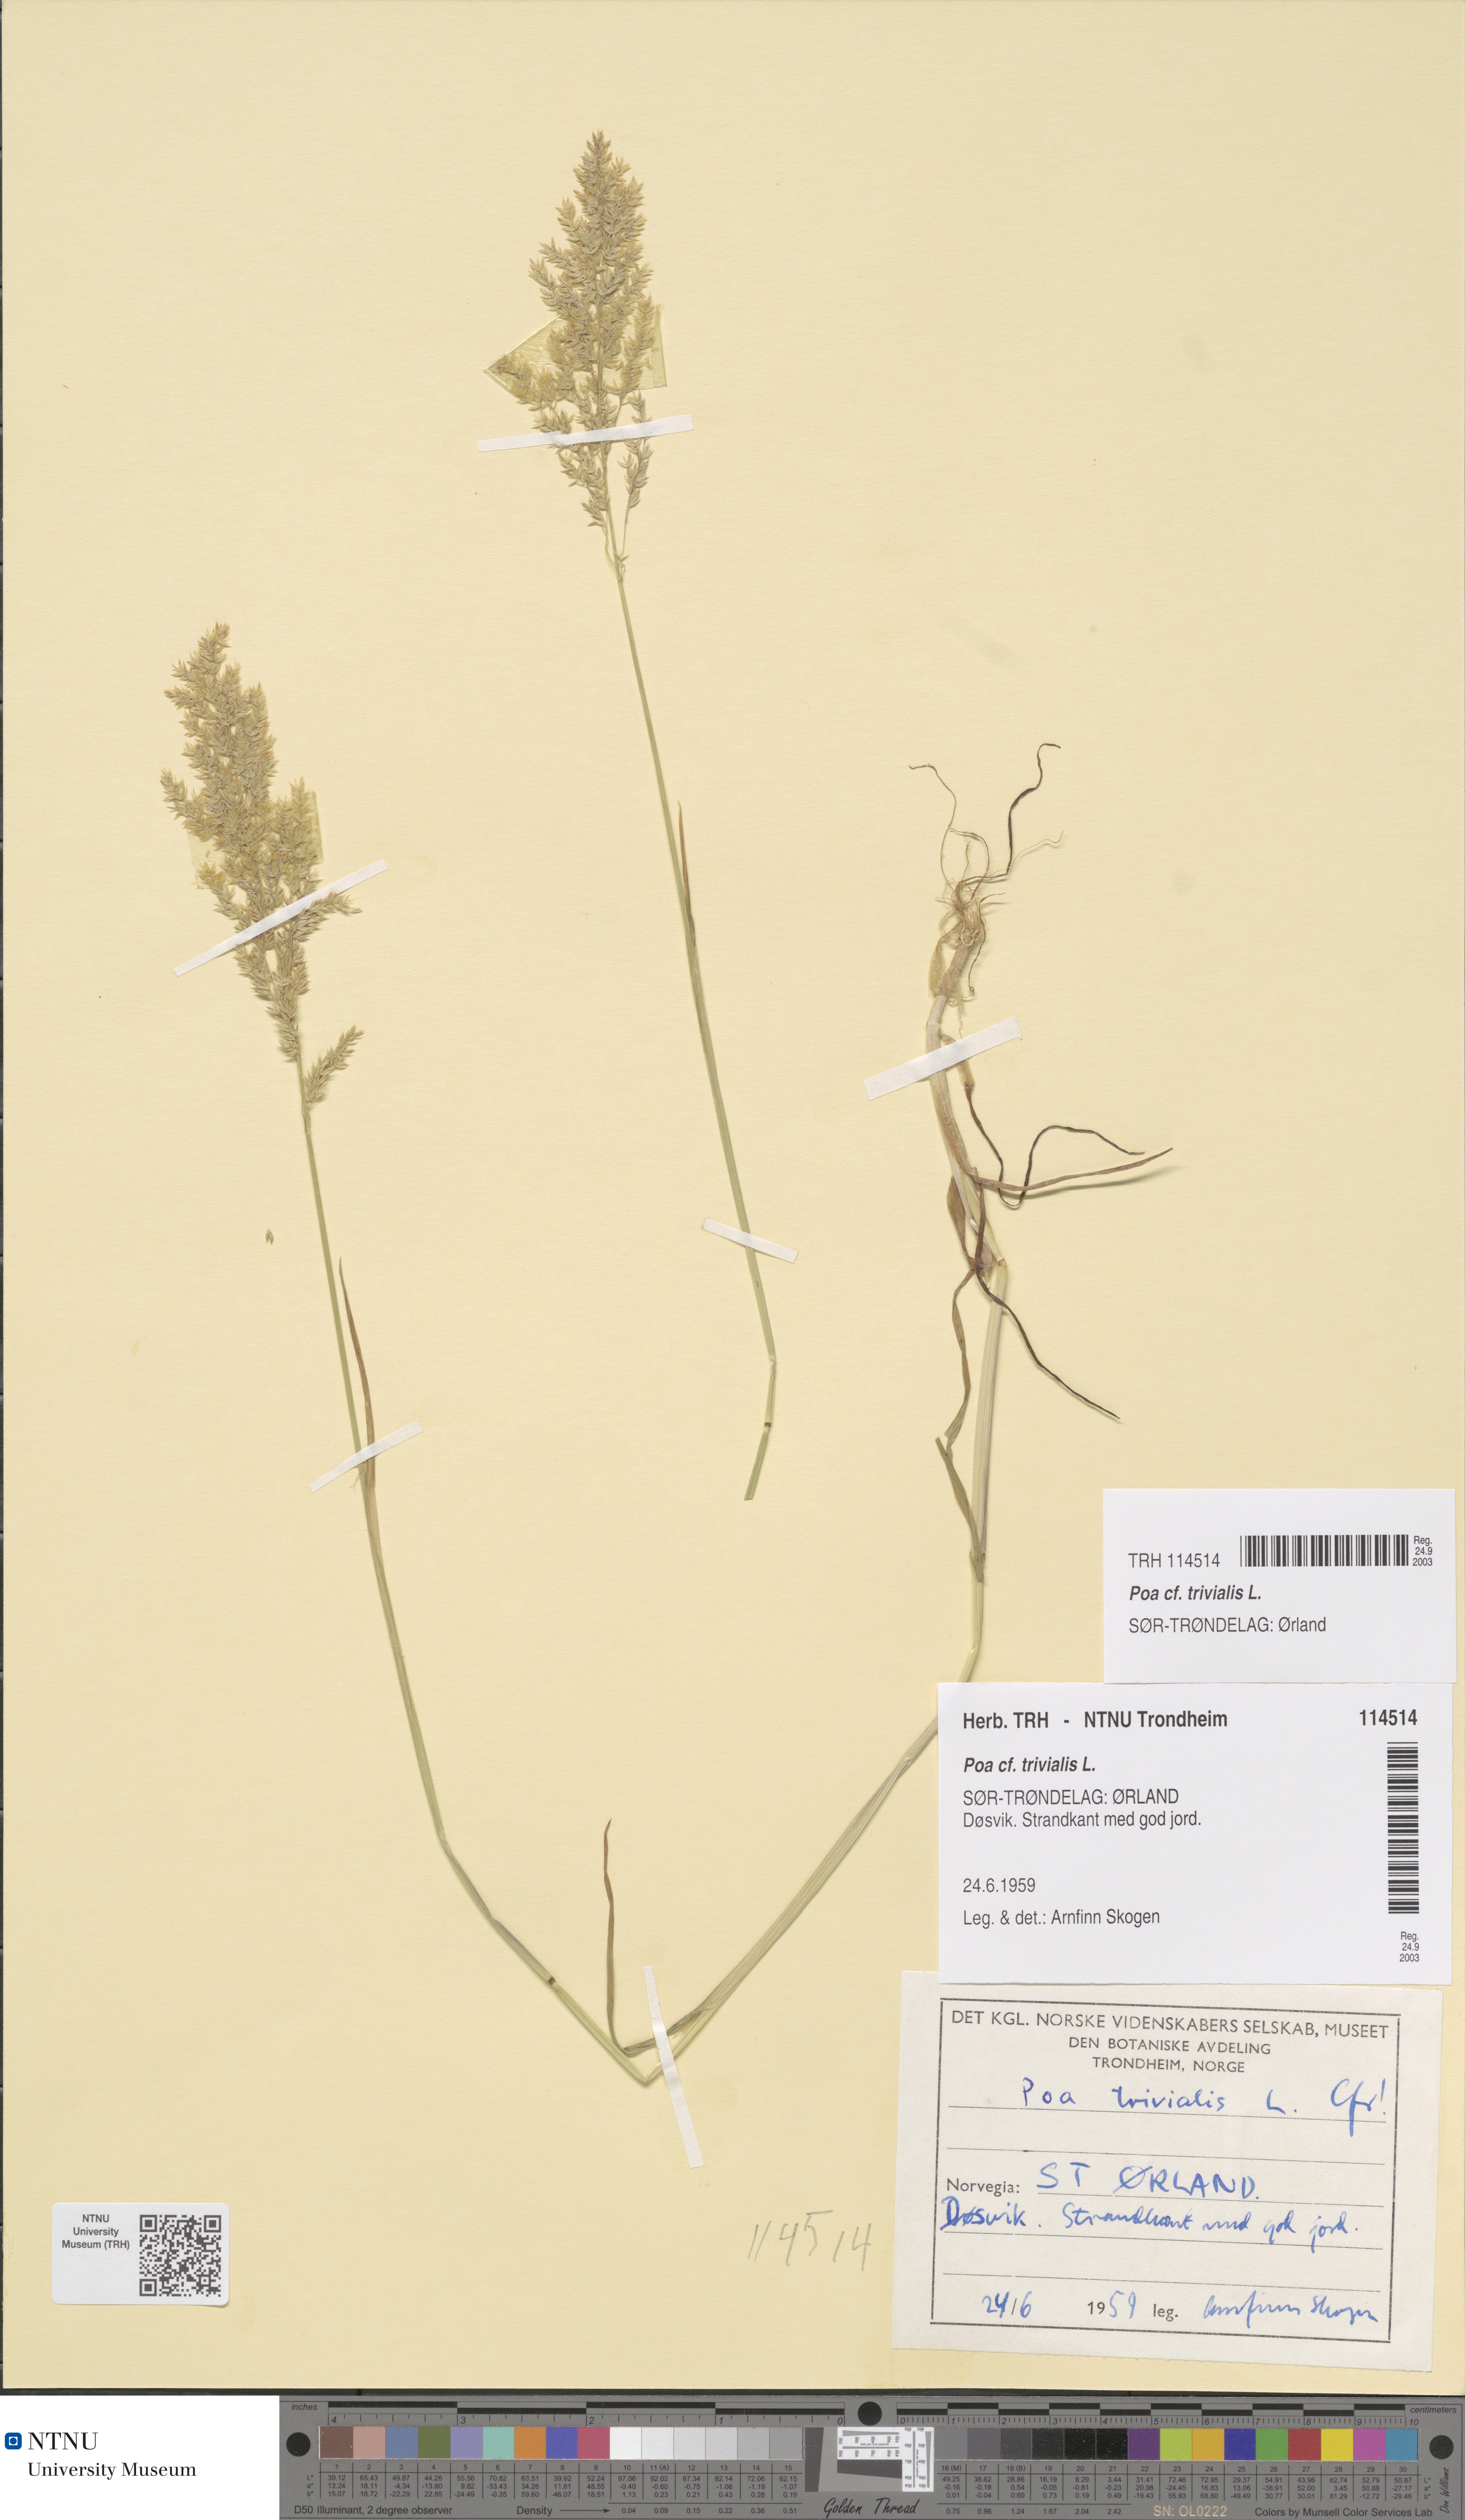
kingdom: Plantae
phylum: Tracheophyta
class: Liliopsida
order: Poales
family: Poaceae
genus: Poa
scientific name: Poa trivialis
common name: Rough bluegrass
